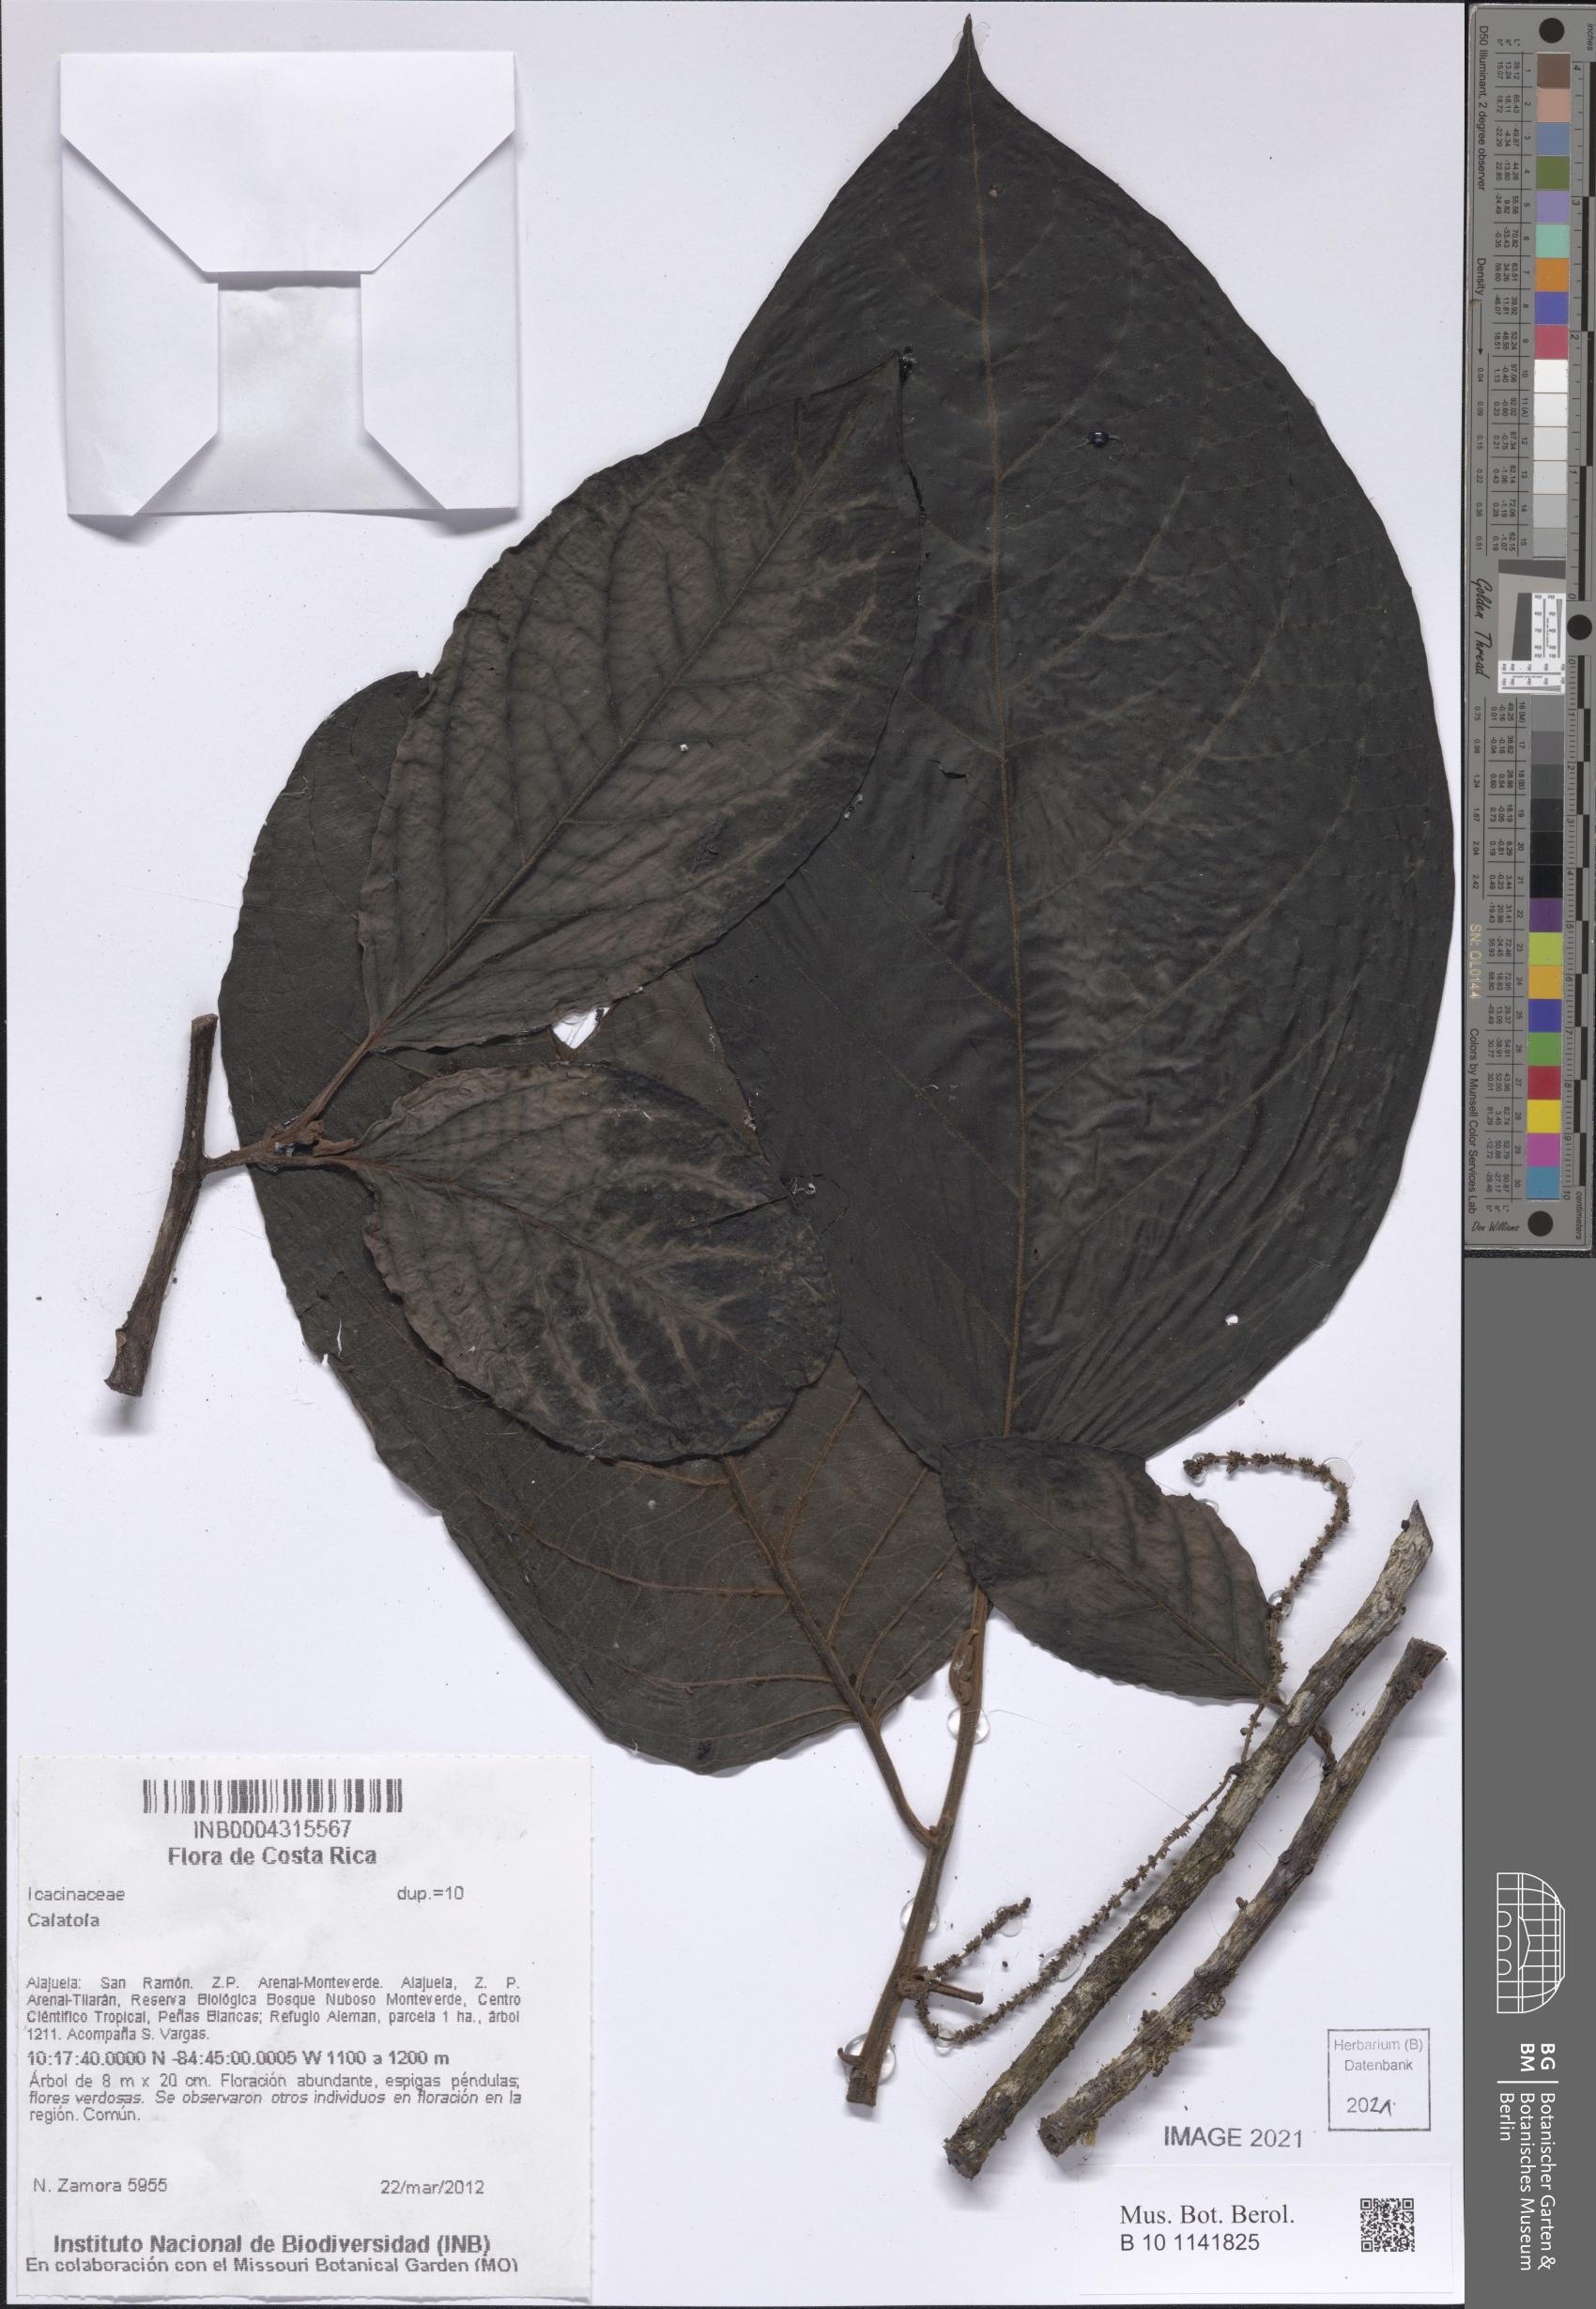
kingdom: Plantae
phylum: Tracheophyta
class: Magnoliopsida
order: Metteniusales
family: Metteniusaceae
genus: Calatola
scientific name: Calatola costaricensis
